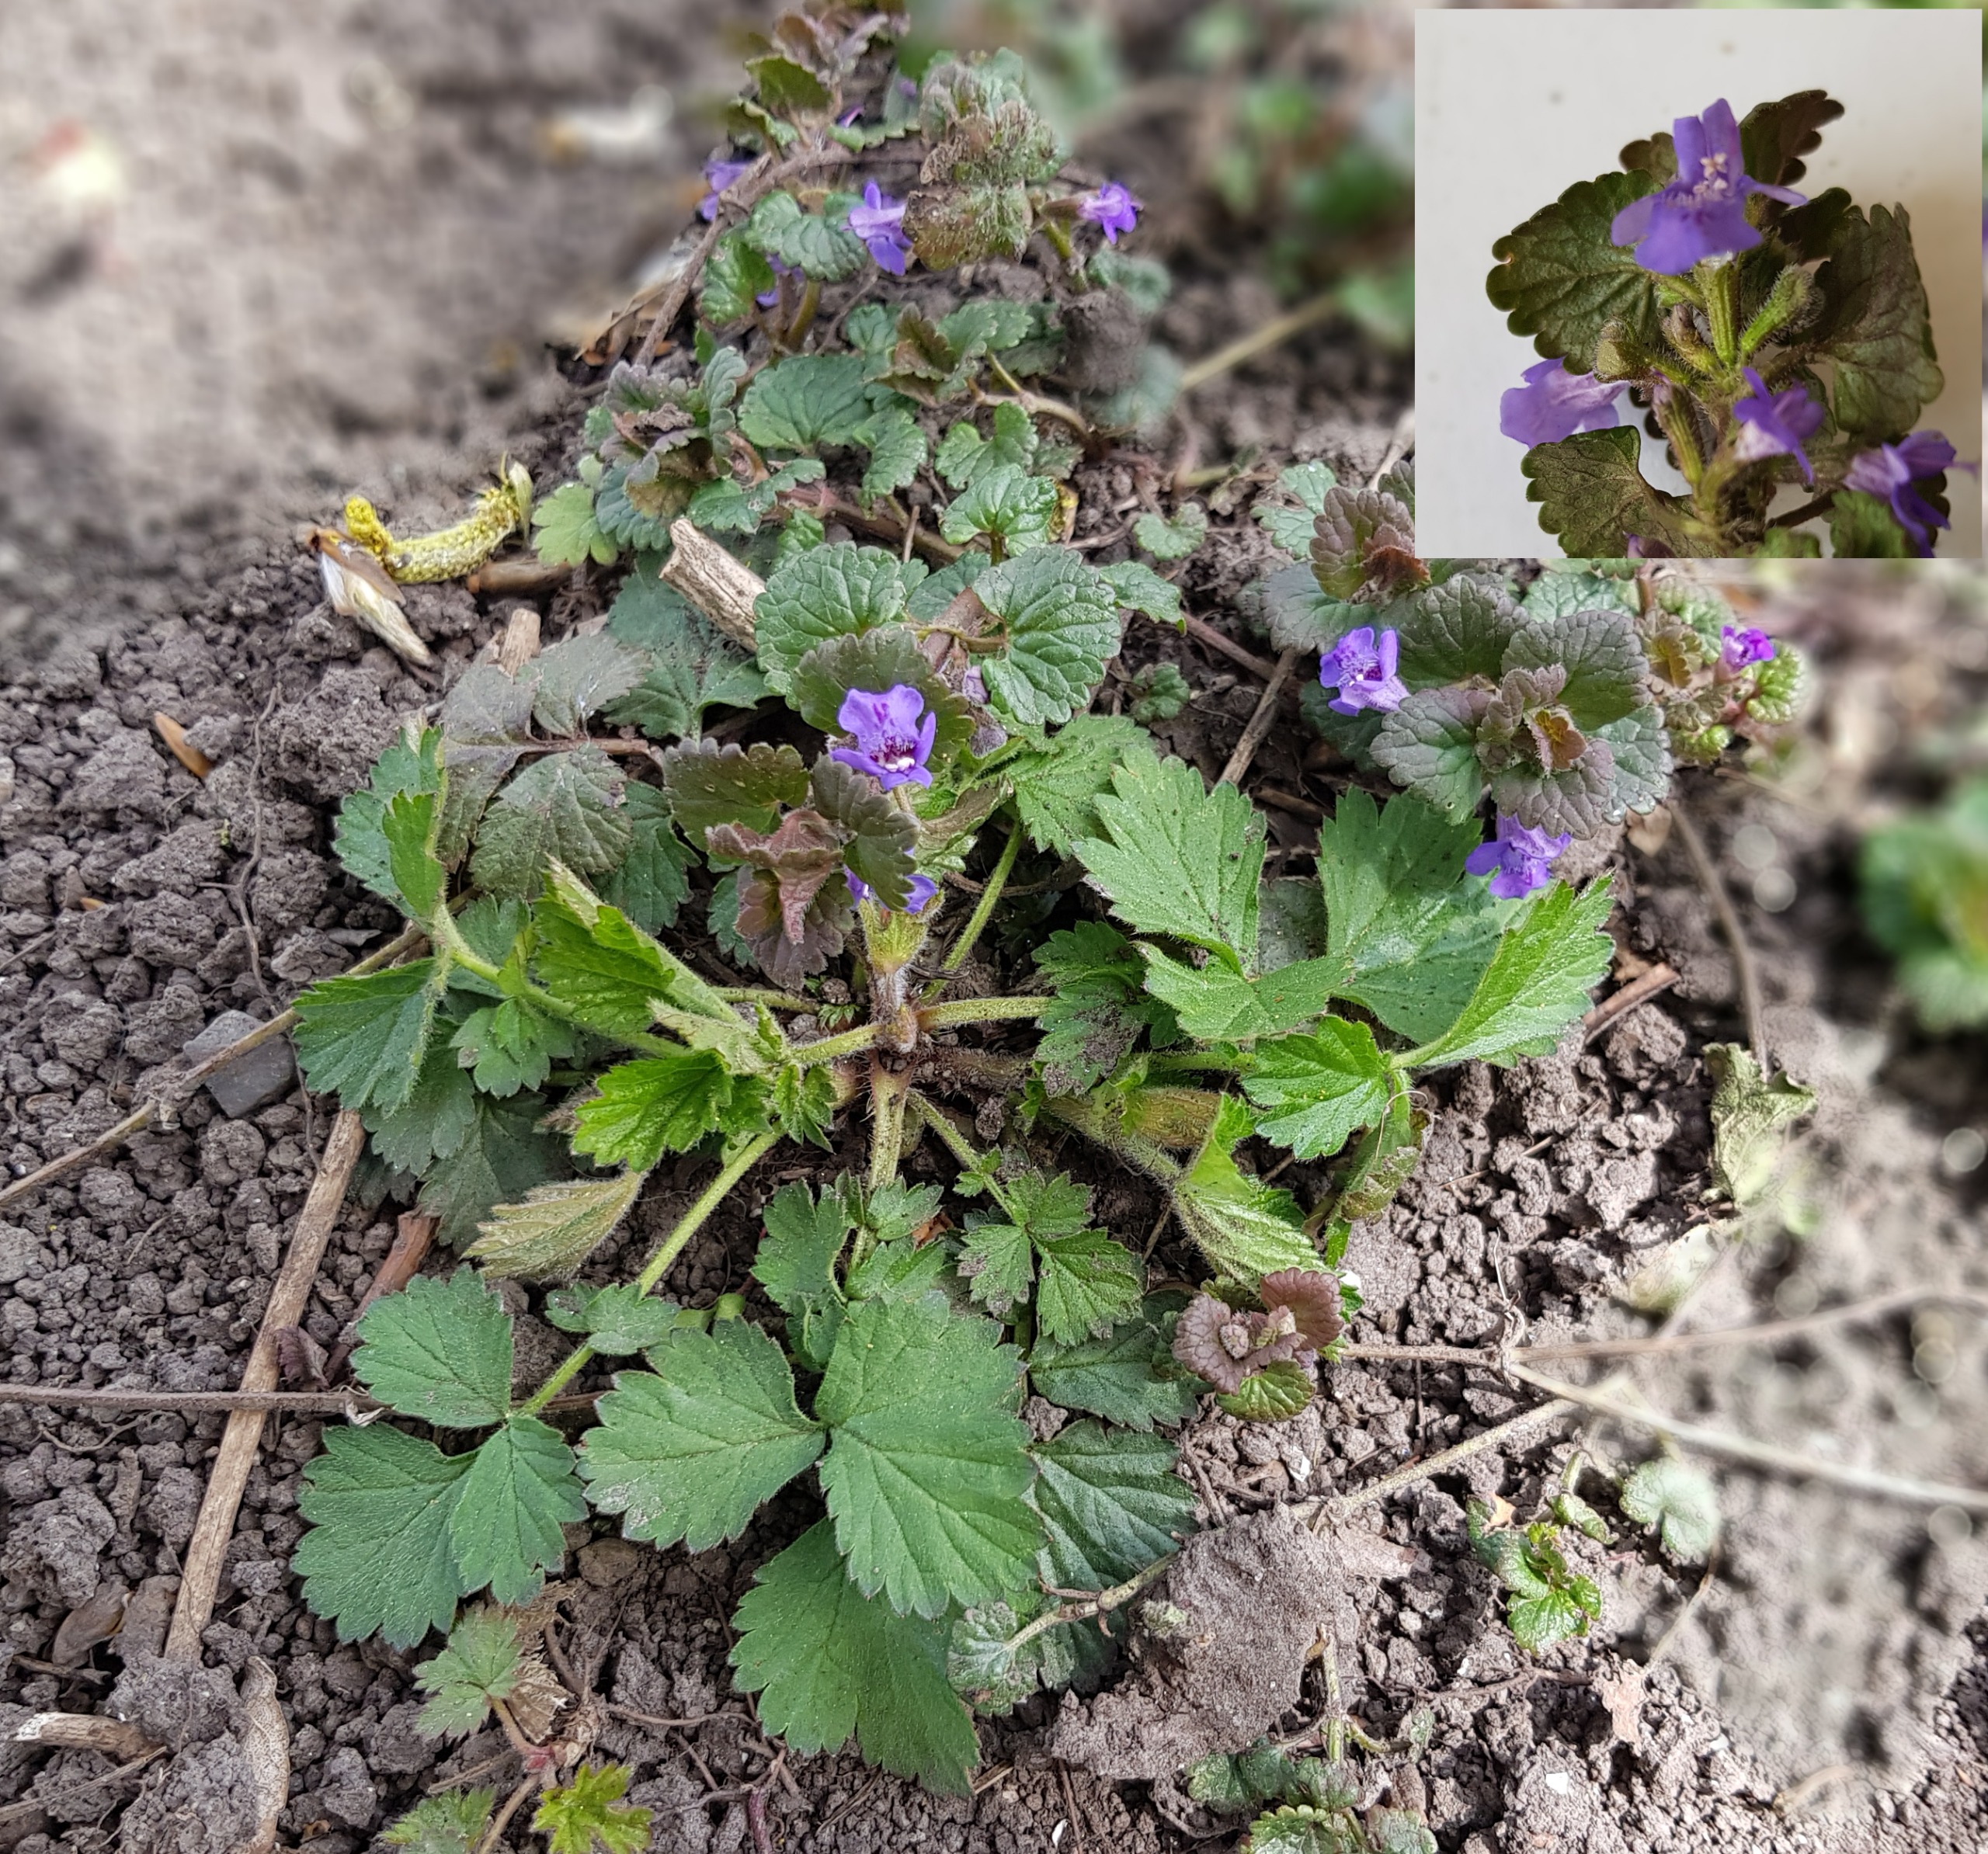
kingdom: Plantae
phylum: Tracheophyta
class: Magnoliopsida
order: Lamiales
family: Lamiaceae
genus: Glechoma
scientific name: Glechoma hederacea
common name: Korsknap
